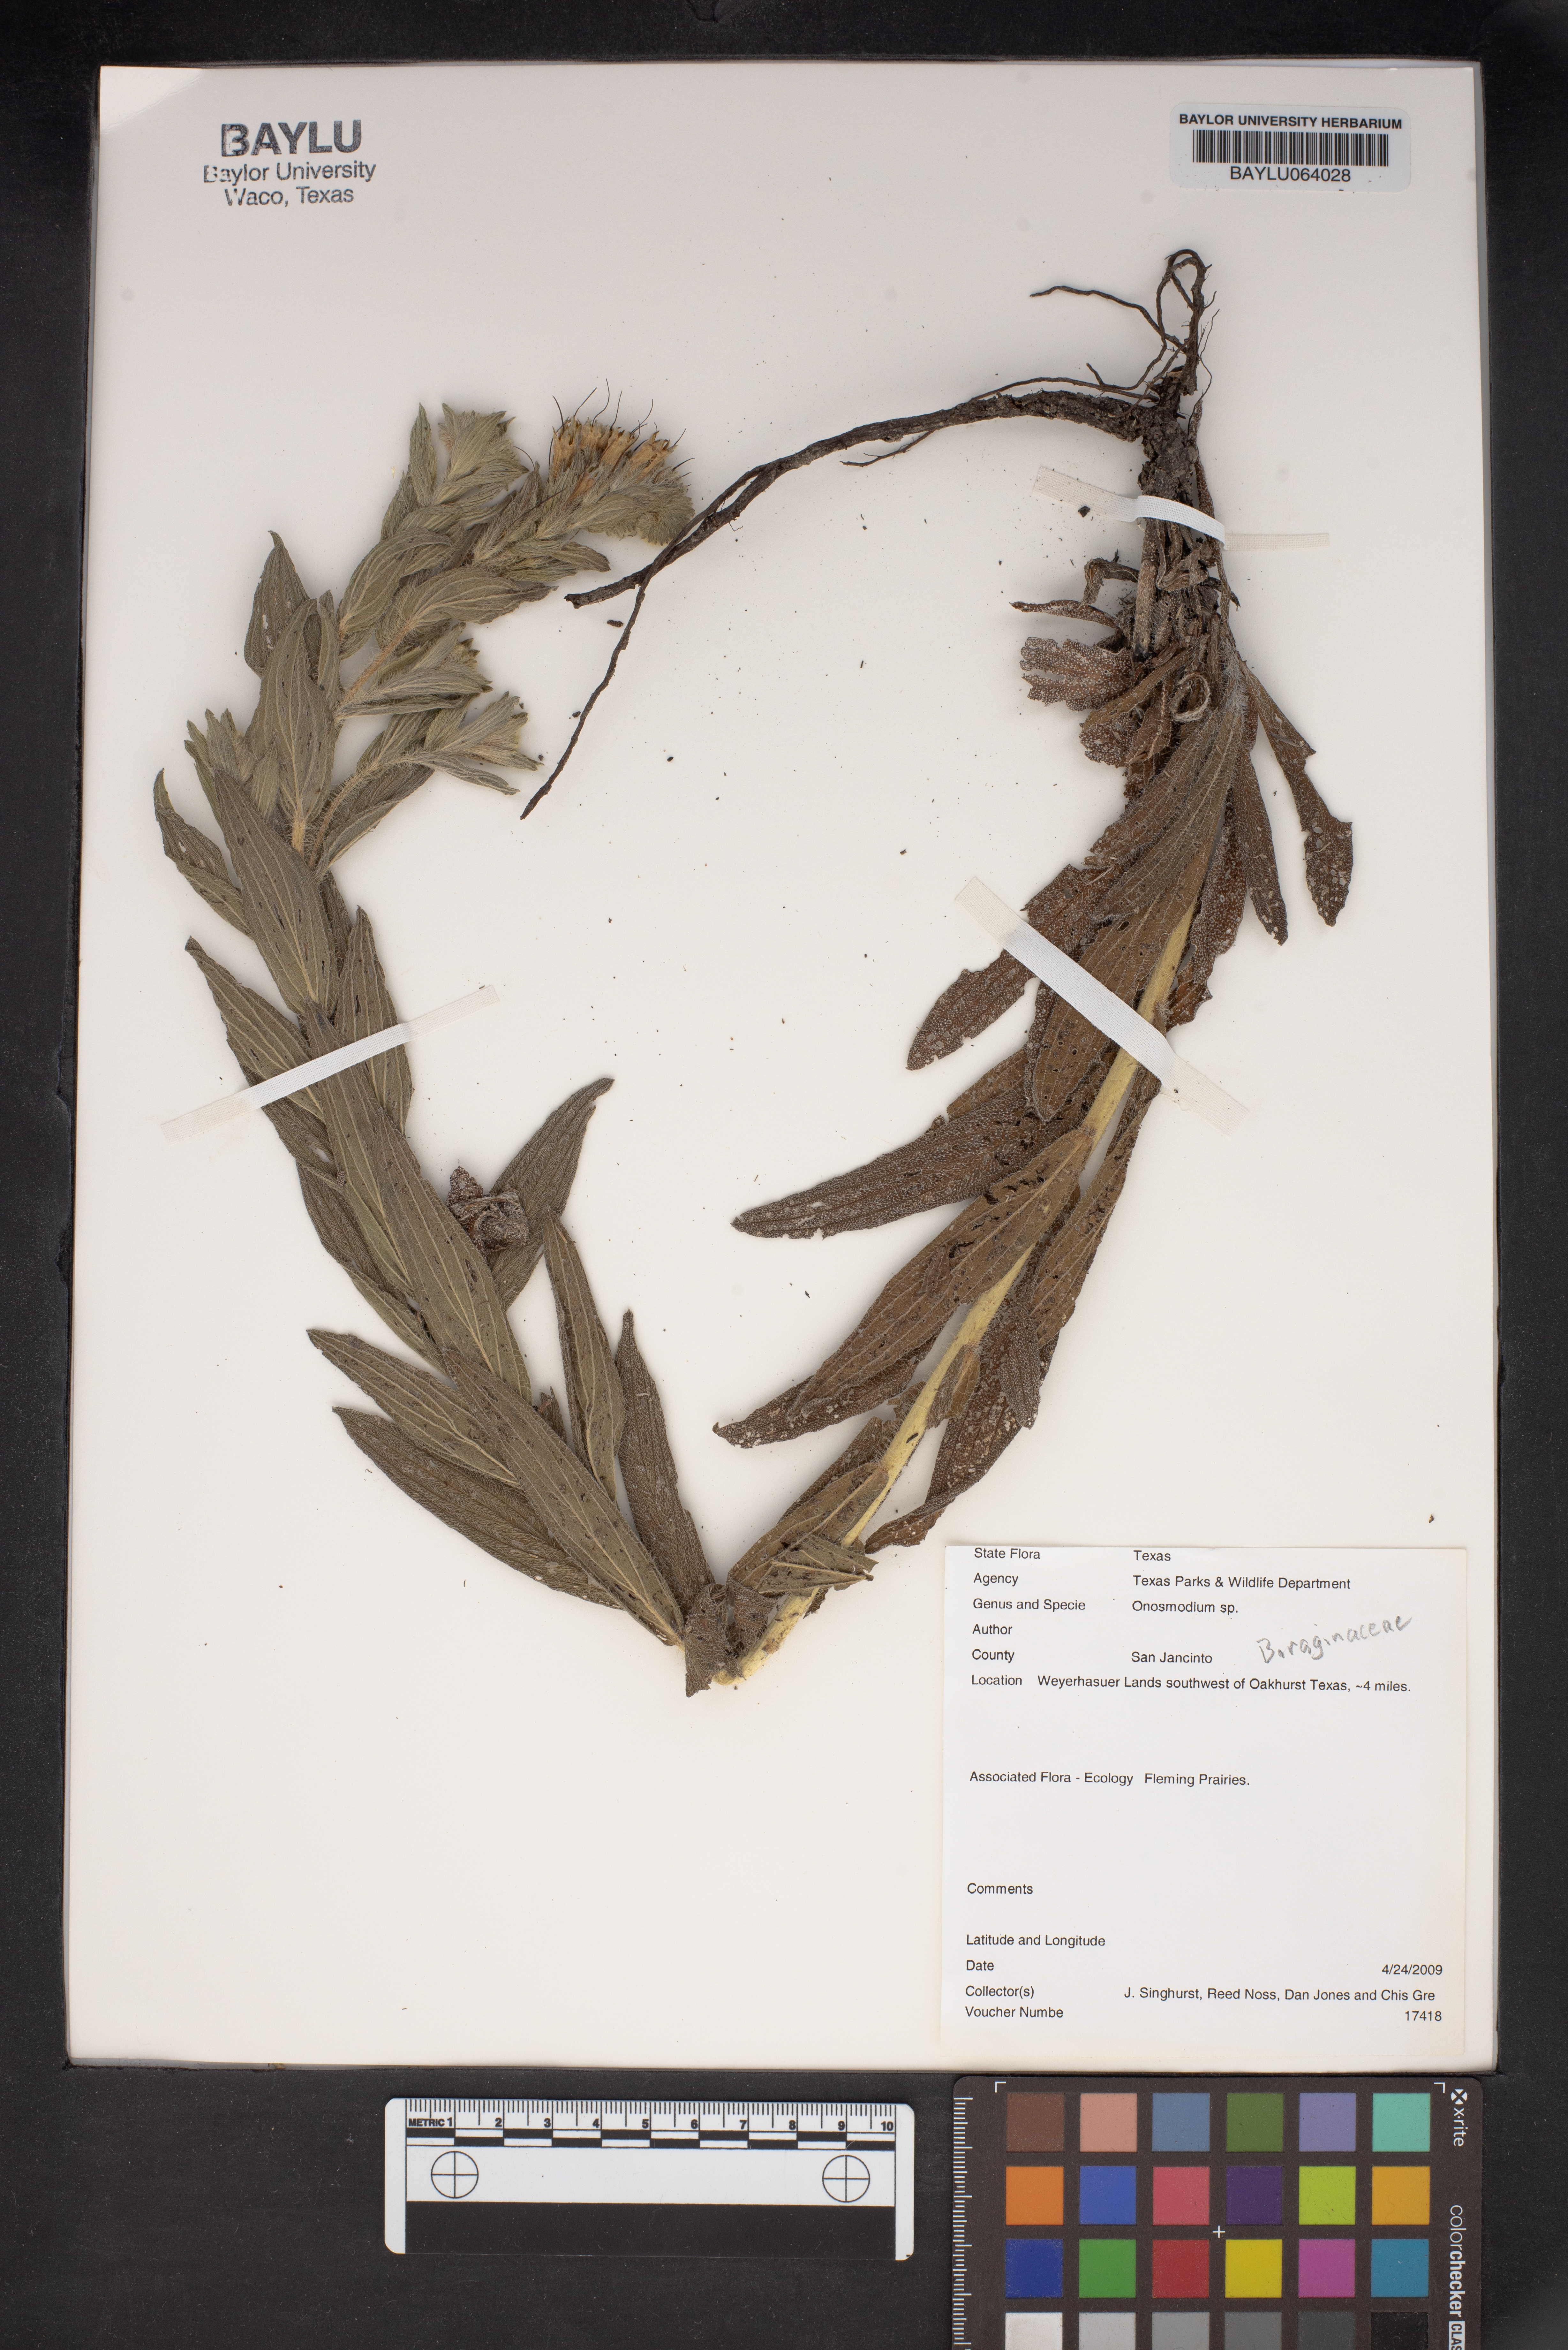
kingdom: Plantae
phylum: Tracheophyta
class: Magnoliopsida
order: Boraginales
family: Boraginaceae
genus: Lithospermum
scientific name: Lithospermum
